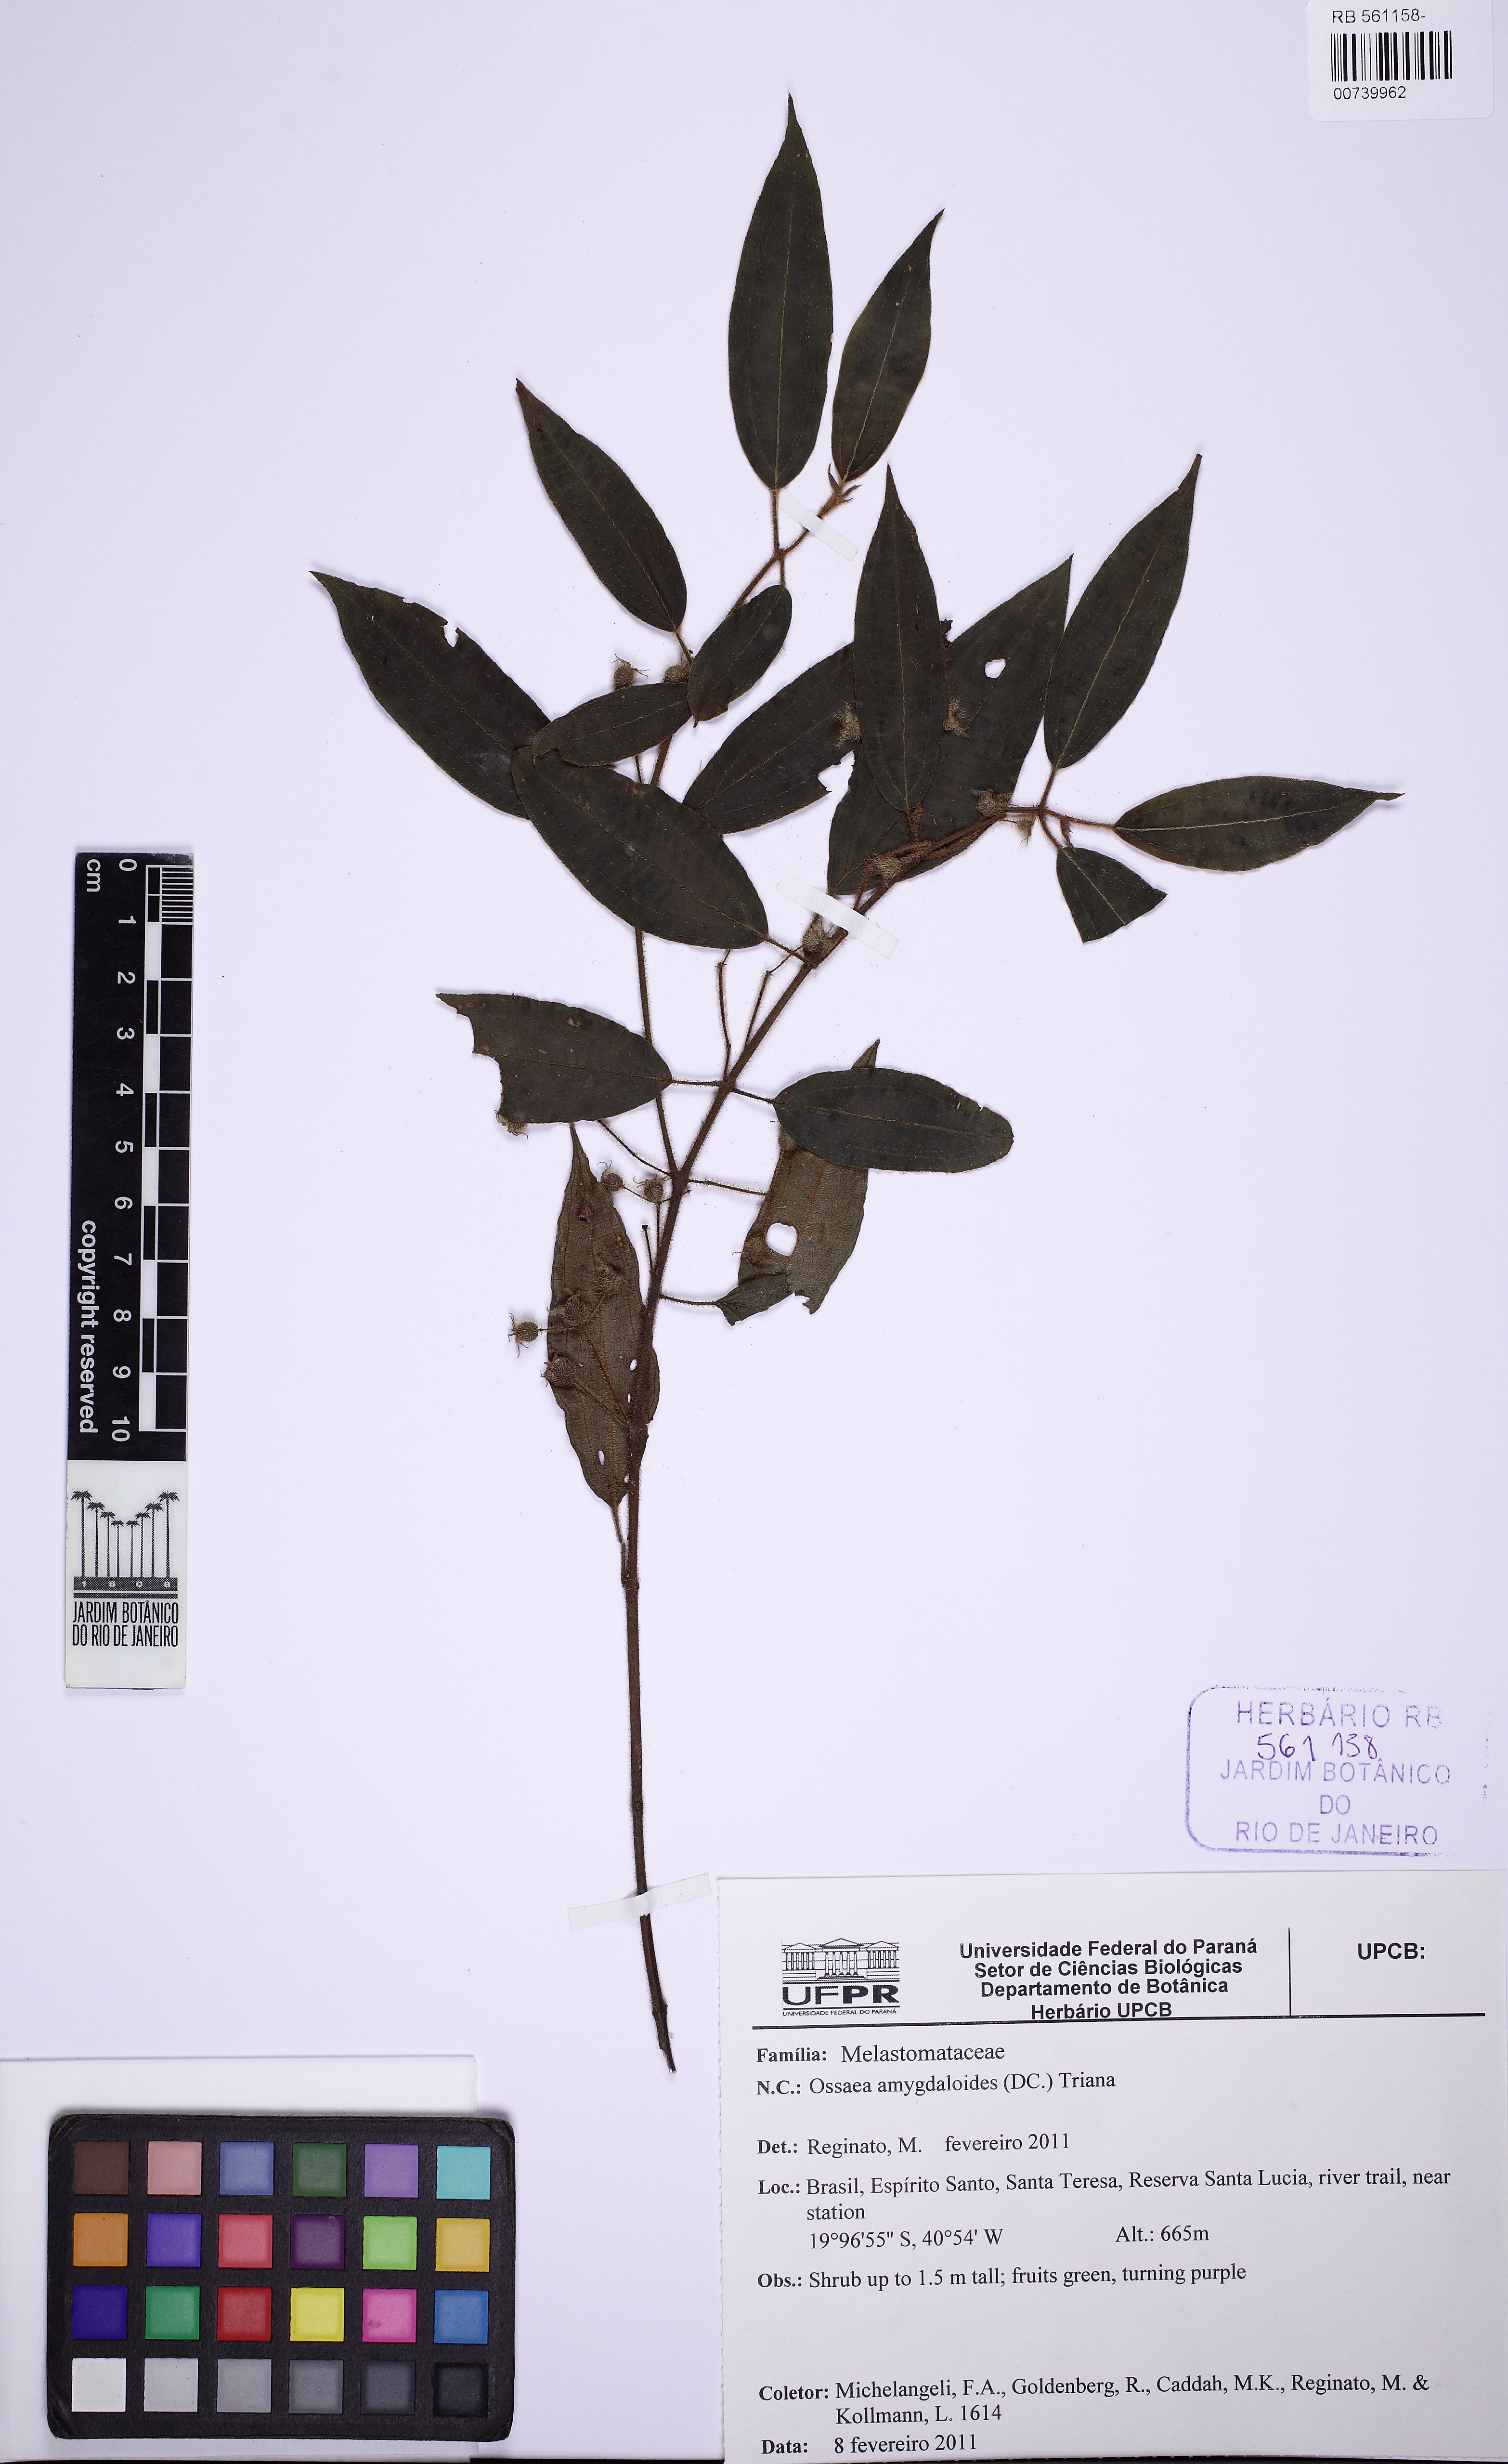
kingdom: Plantae
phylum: Tracheophyta
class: Magnoliopsida
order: Myrtales
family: Melastomataceae
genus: Miconia
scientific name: Miconia amygdaloides
